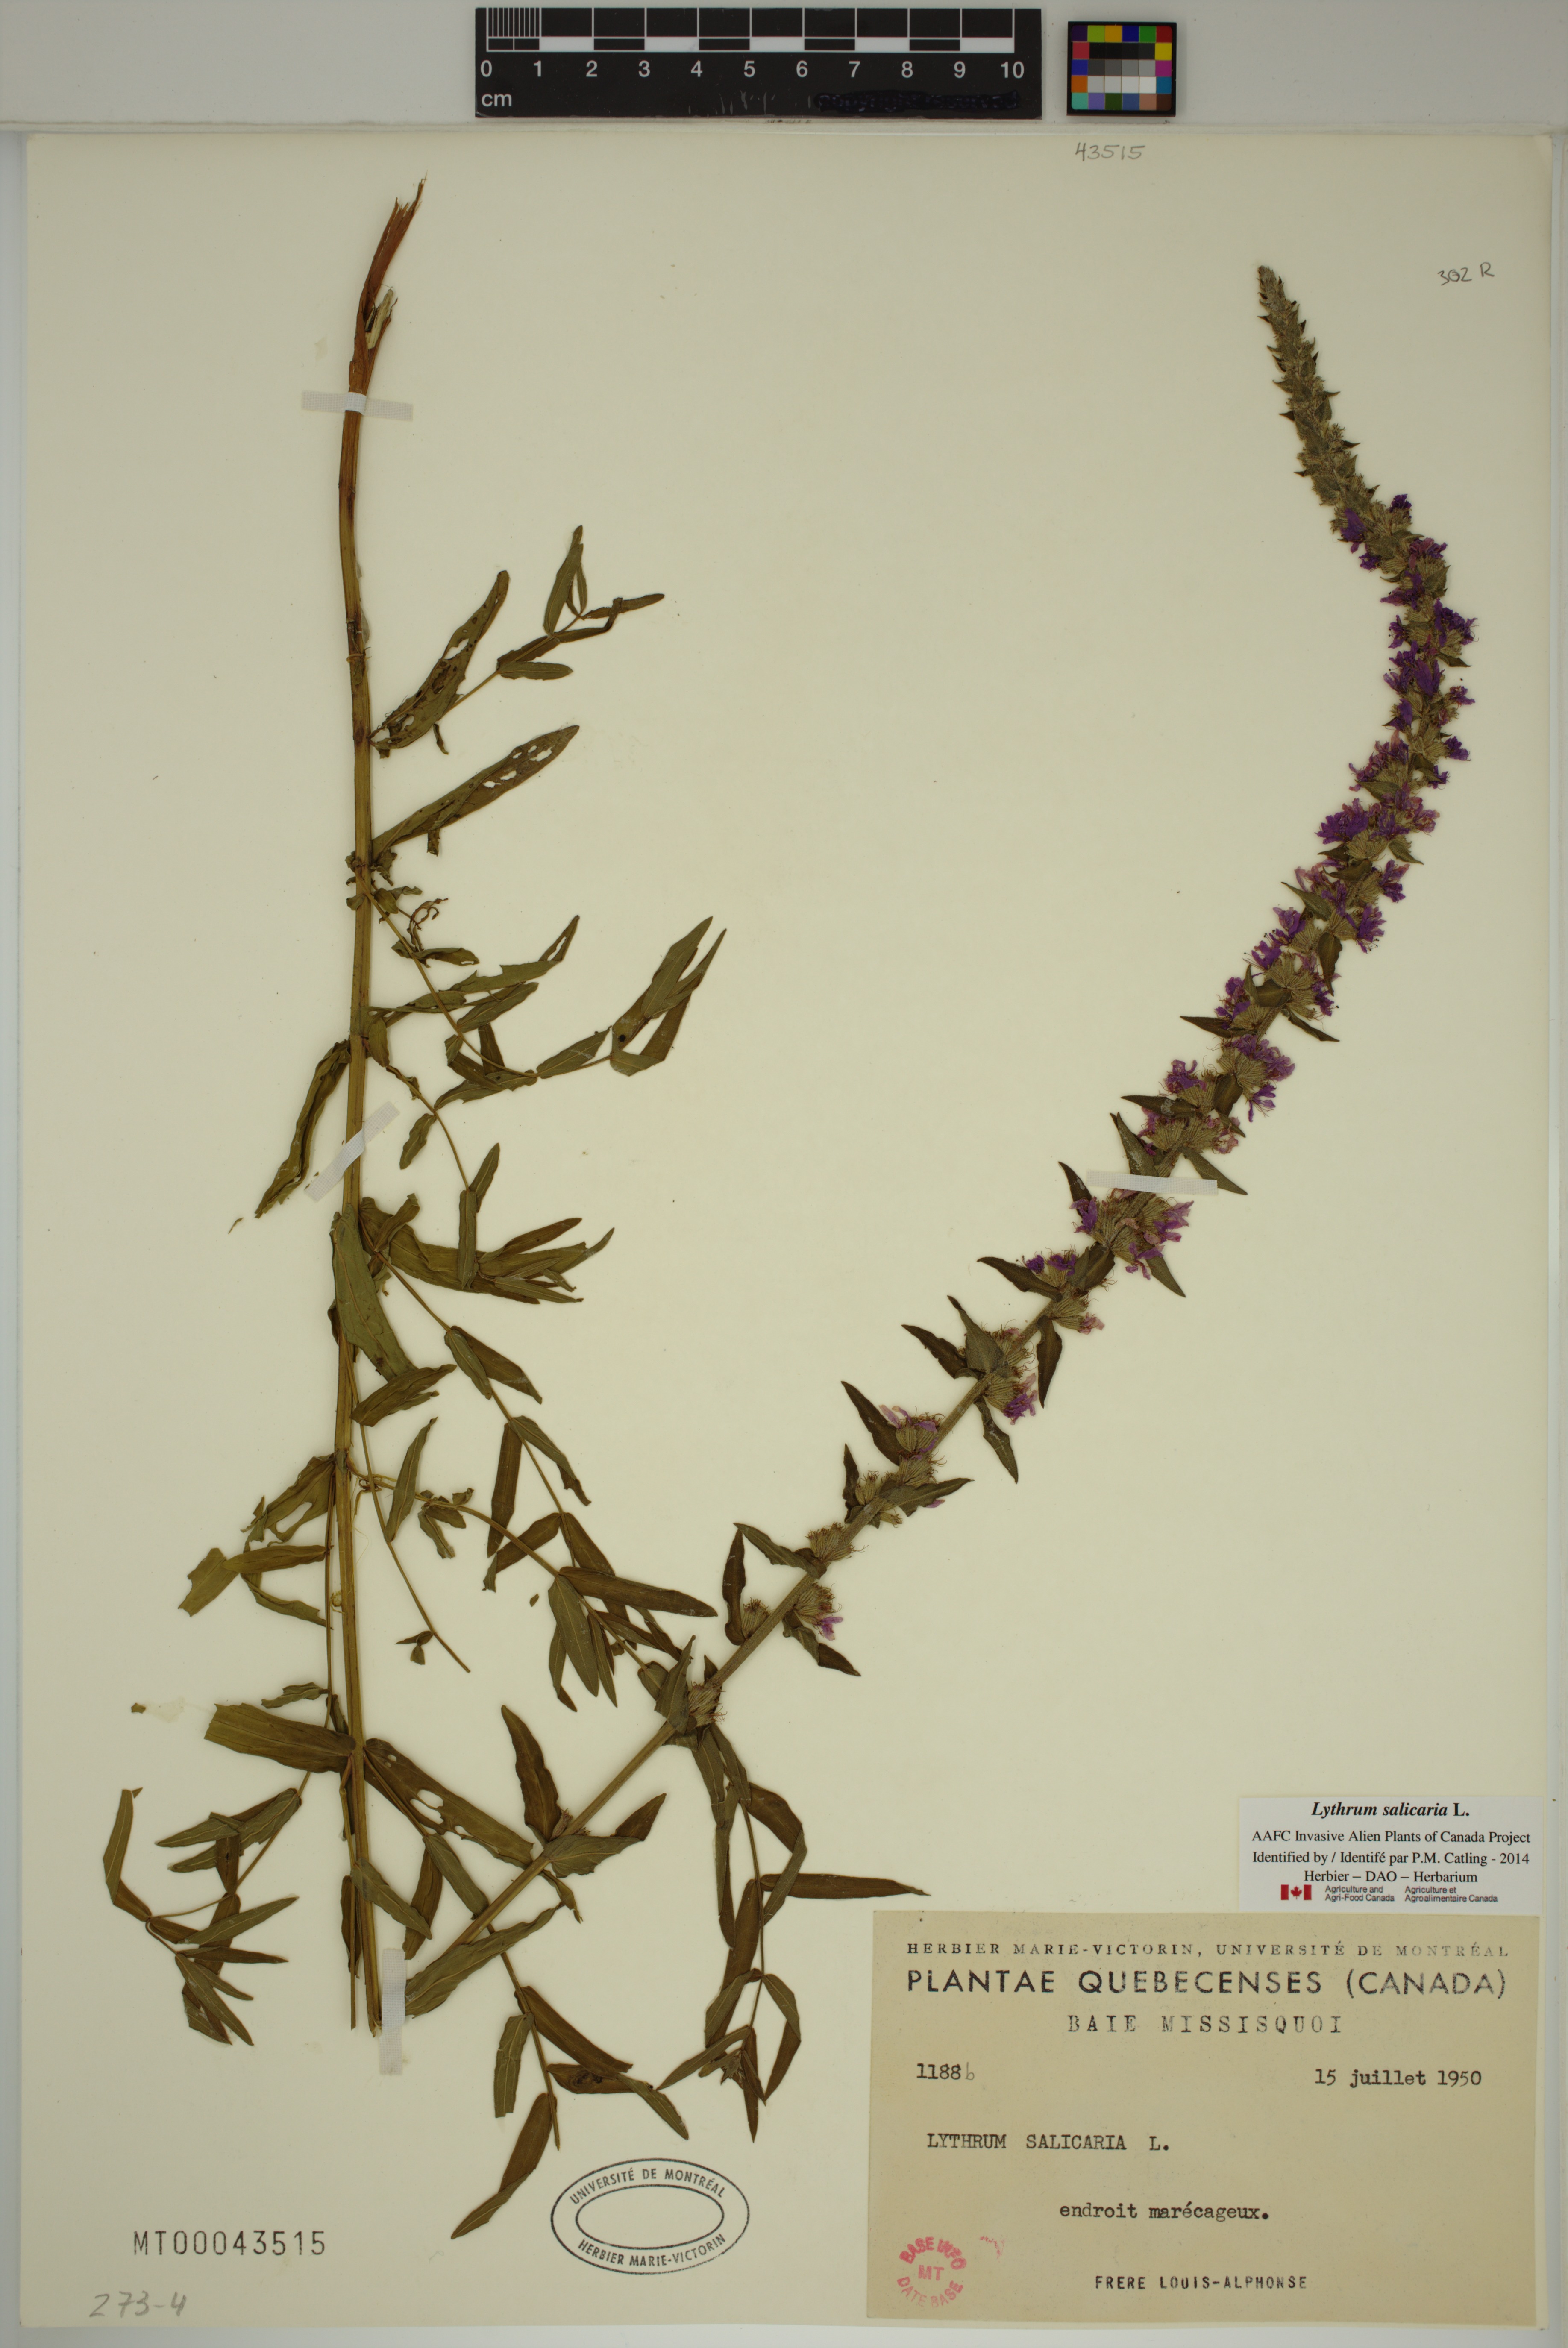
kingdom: Plantae
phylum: Tracheophyta
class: Magnoliopsida
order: Myrtales
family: Lythraceae
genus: Lythrum
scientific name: Lythrum salicaria
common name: Purple loosestrife
